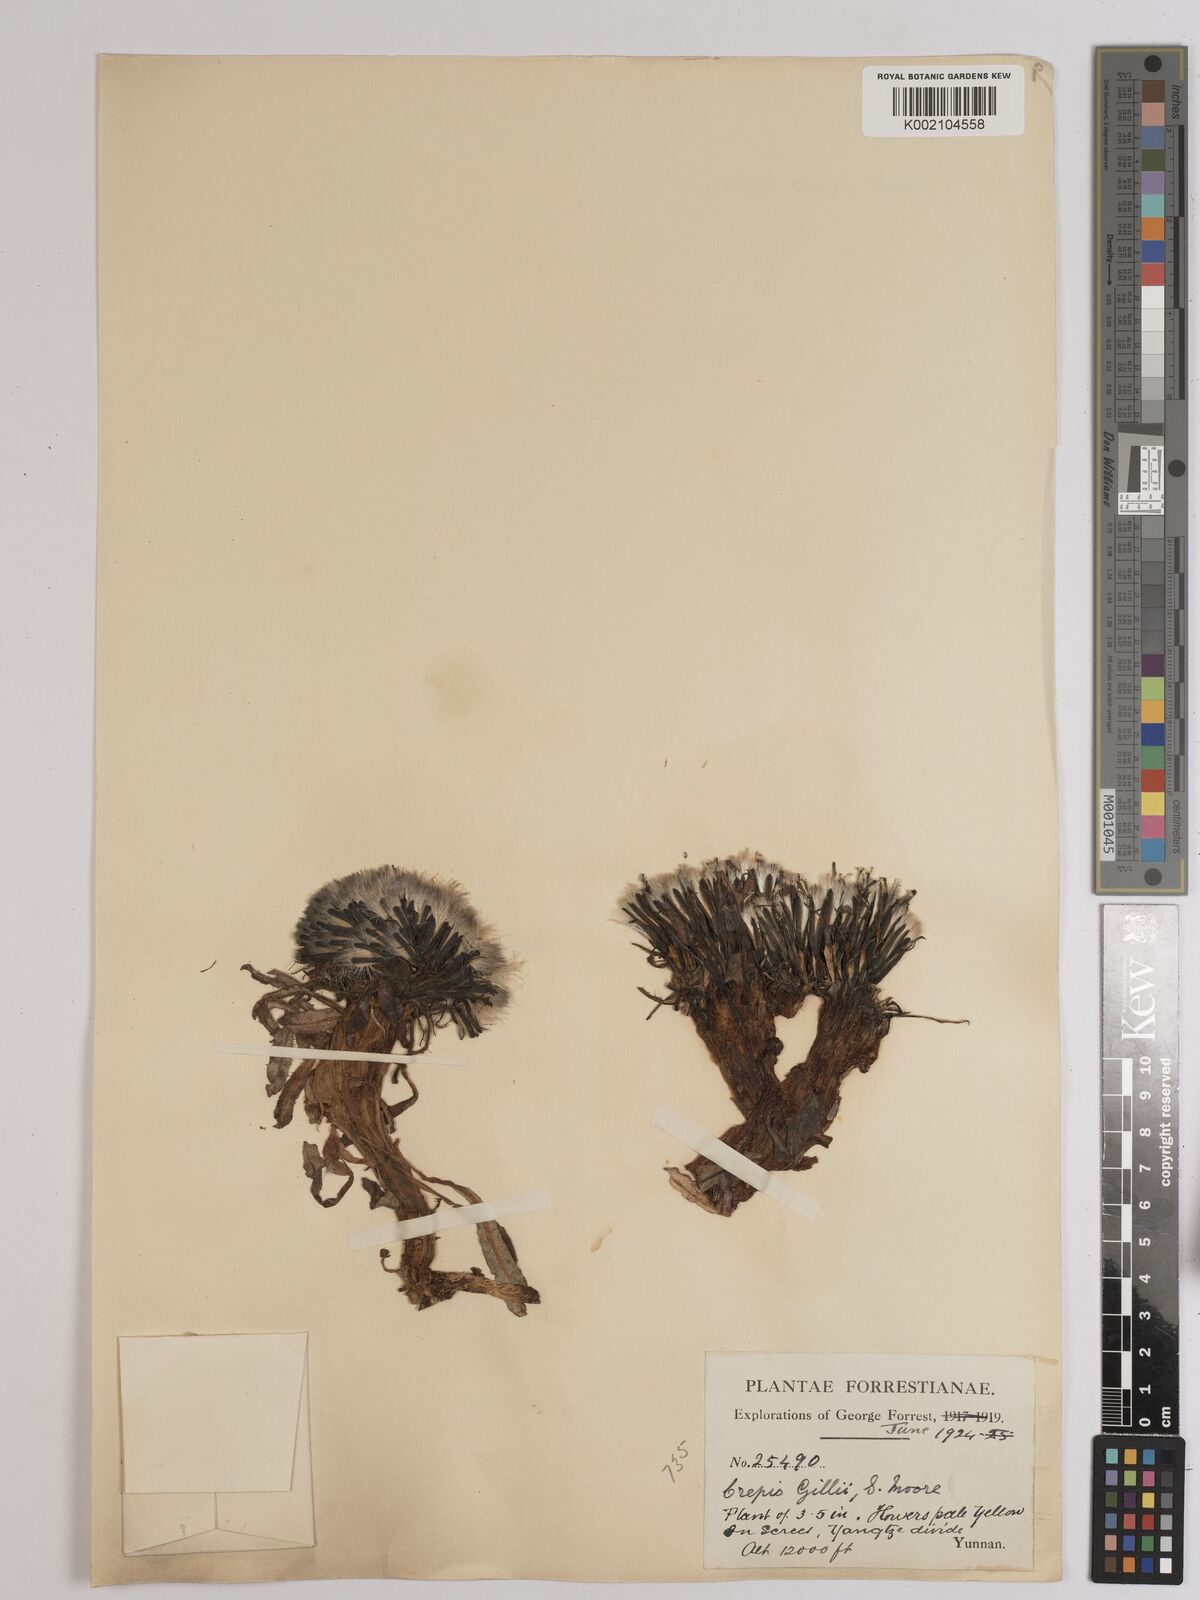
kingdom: Plantae
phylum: Tracheophyta
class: Magnoliopsida
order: Asterales
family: Asteraceae
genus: Soroseris
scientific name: Soroseris hookeriana
